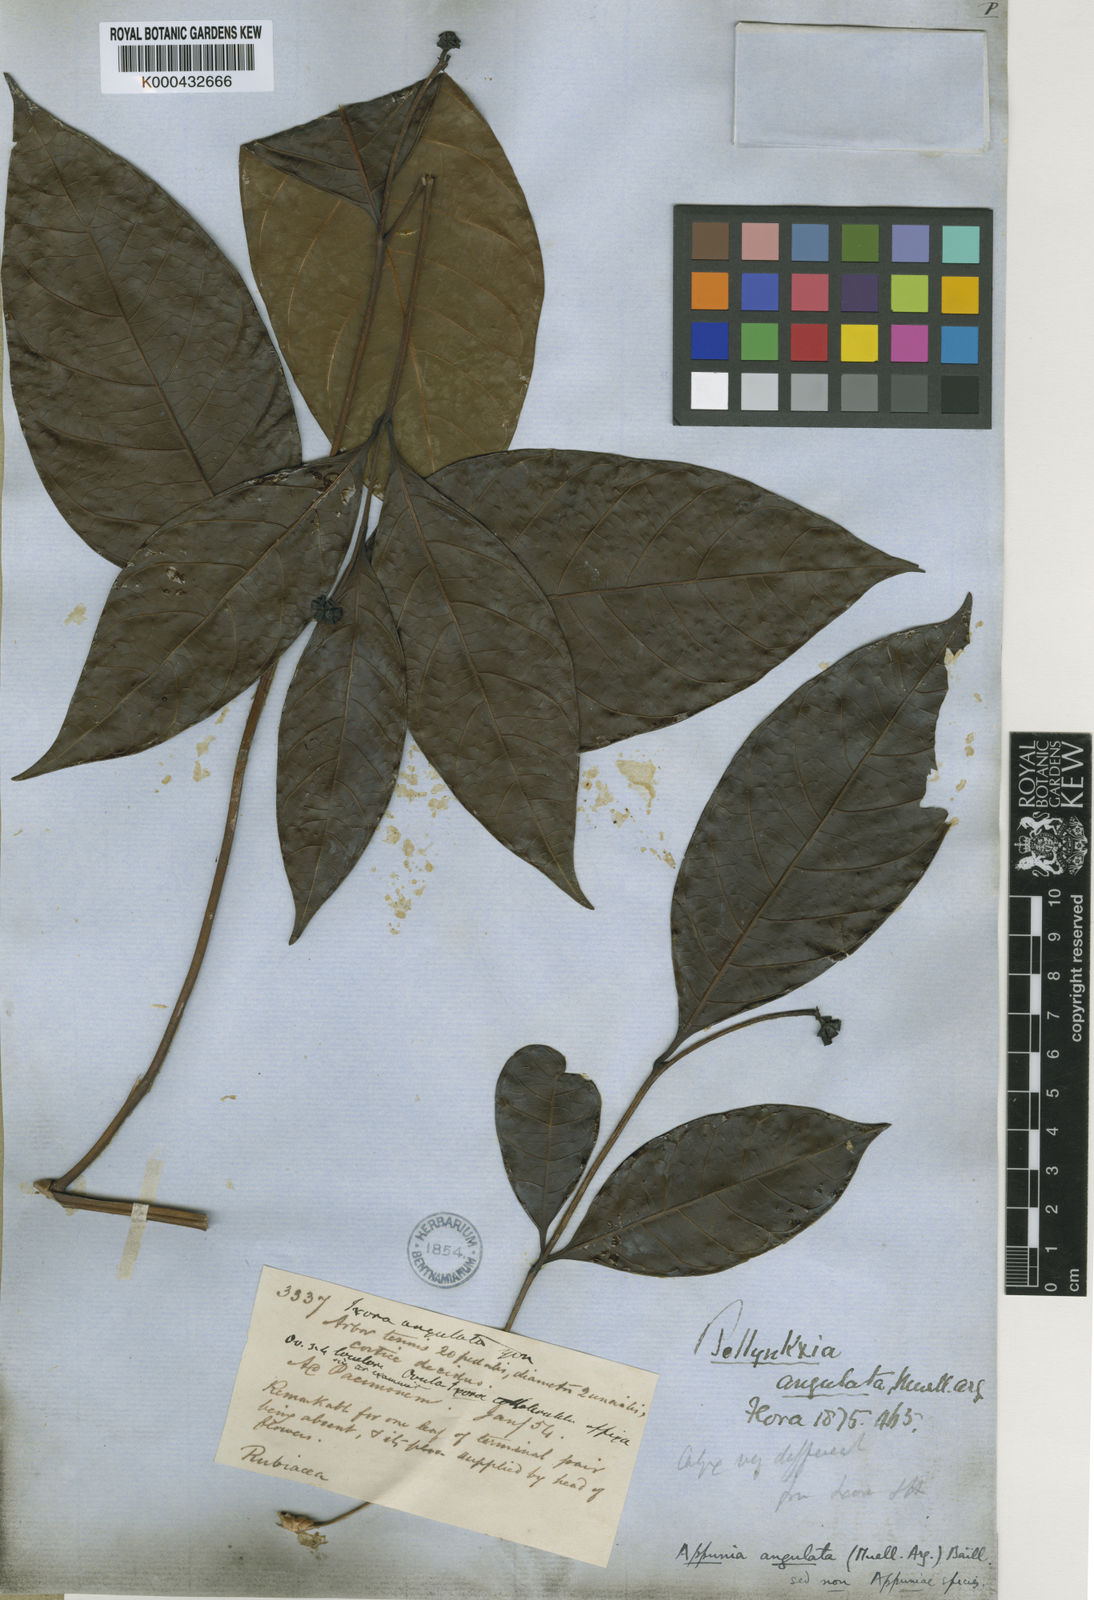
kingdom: Plantae
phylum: Tracheophyta
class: Magnoliopsida
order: Gentianales
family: Rubiaceae
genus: Appunia
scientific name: Appunia peduncularis
